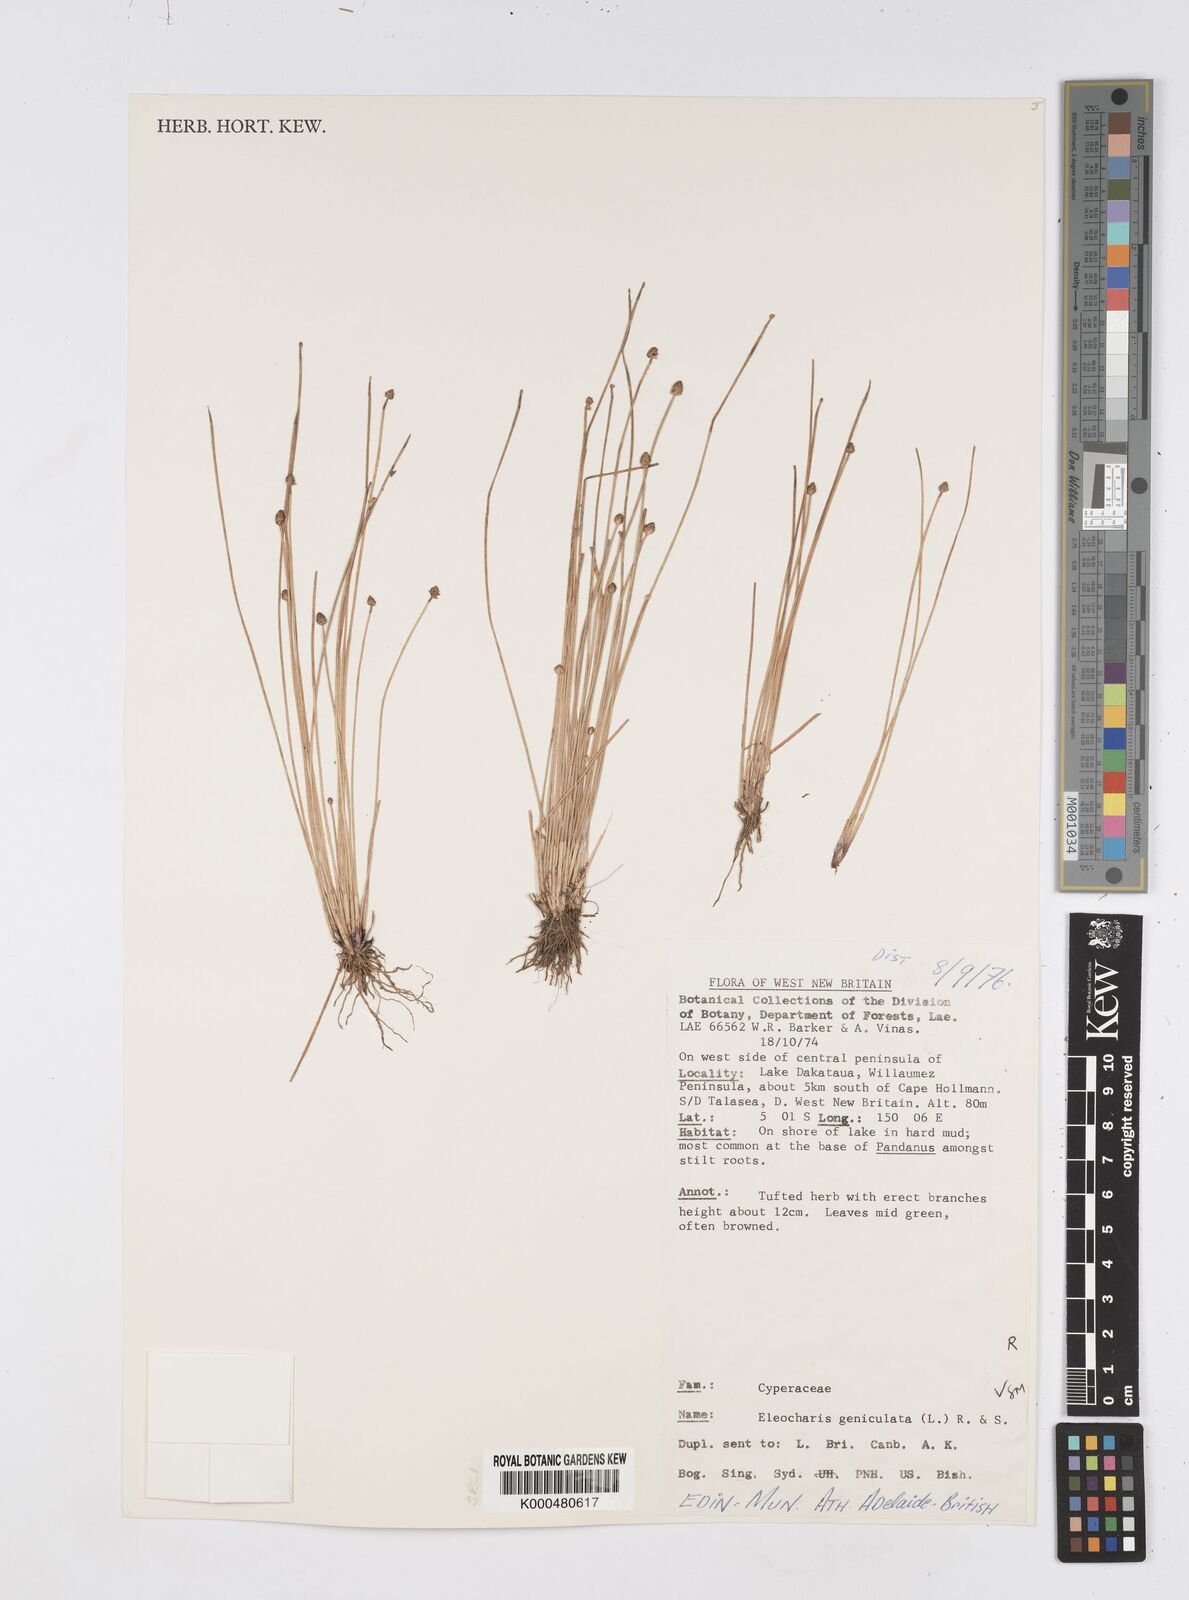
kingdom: Plantae
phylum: Tracheophyta
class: Liliopsida
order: Poales
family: Cyperaceae
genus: Eleocharis
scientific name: Eleocharis geniculata
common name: Canada spikesedge
